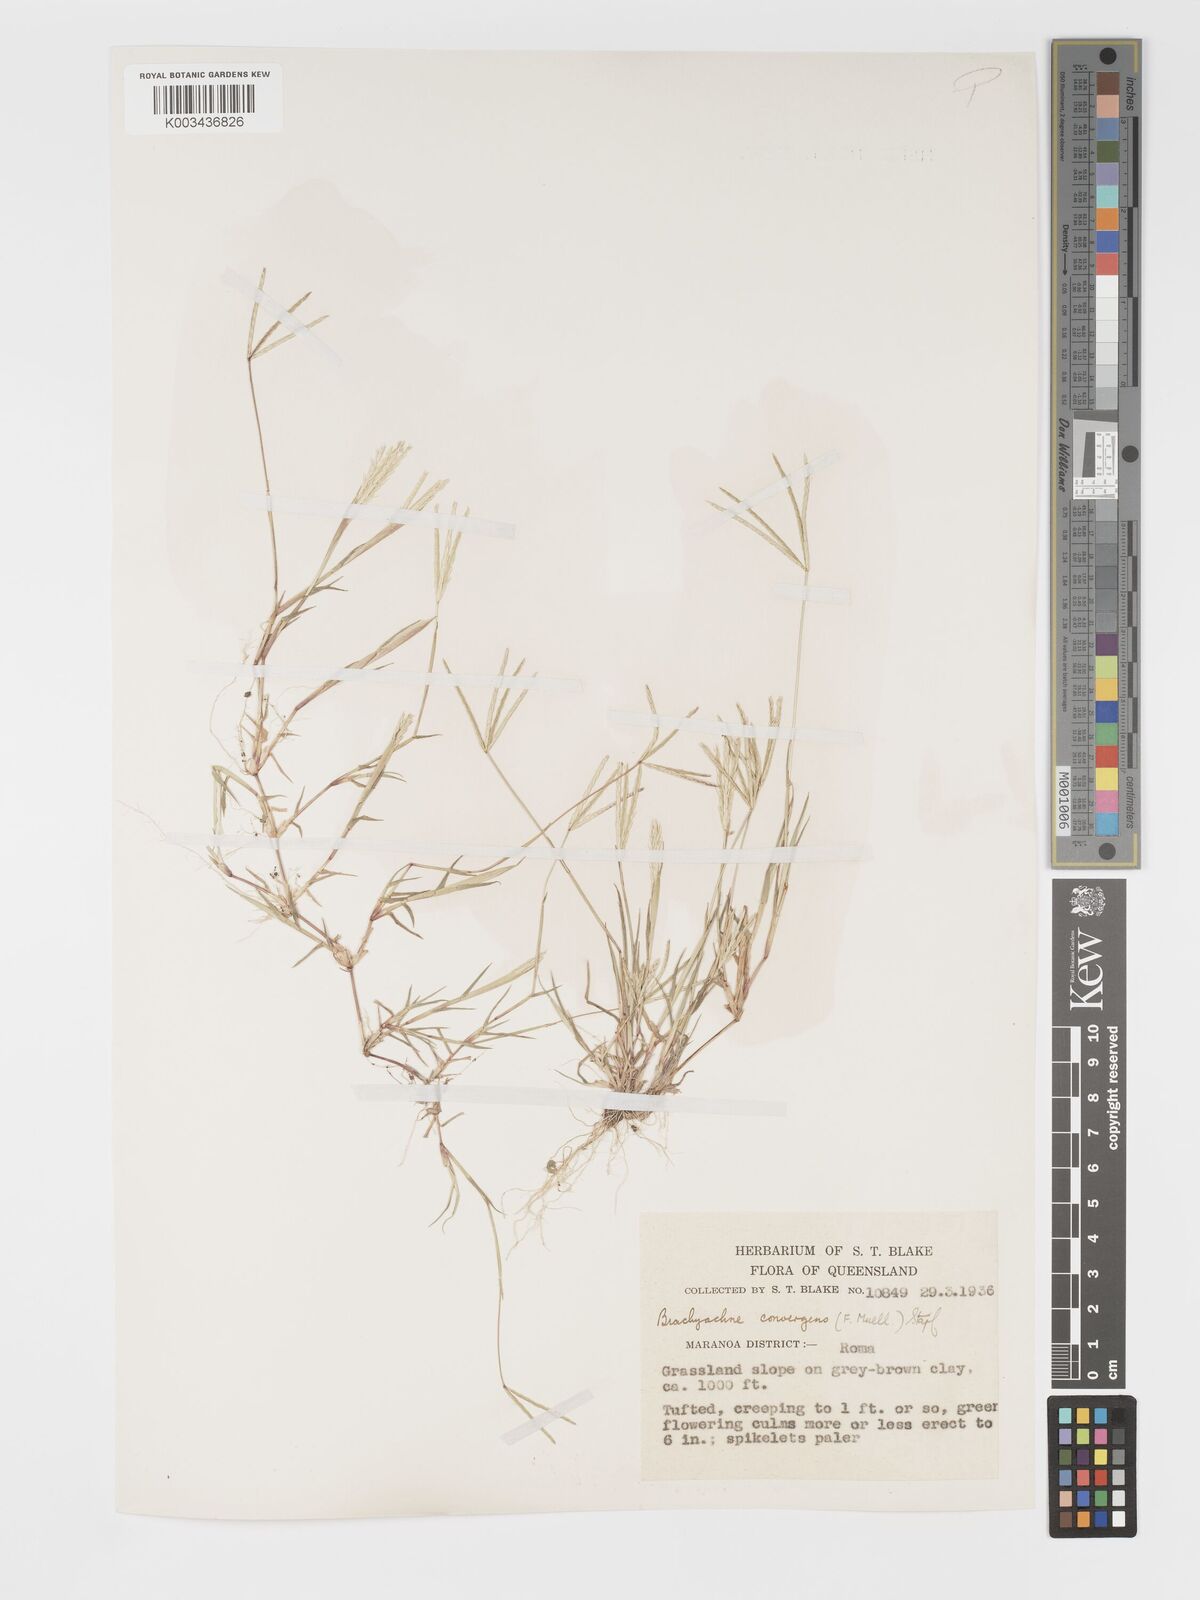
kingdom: Plantae
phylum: Tracheophyta
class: Liliopsida
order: Poales
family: Poaceae
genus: Cynodon
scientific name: Cynodon convergens
